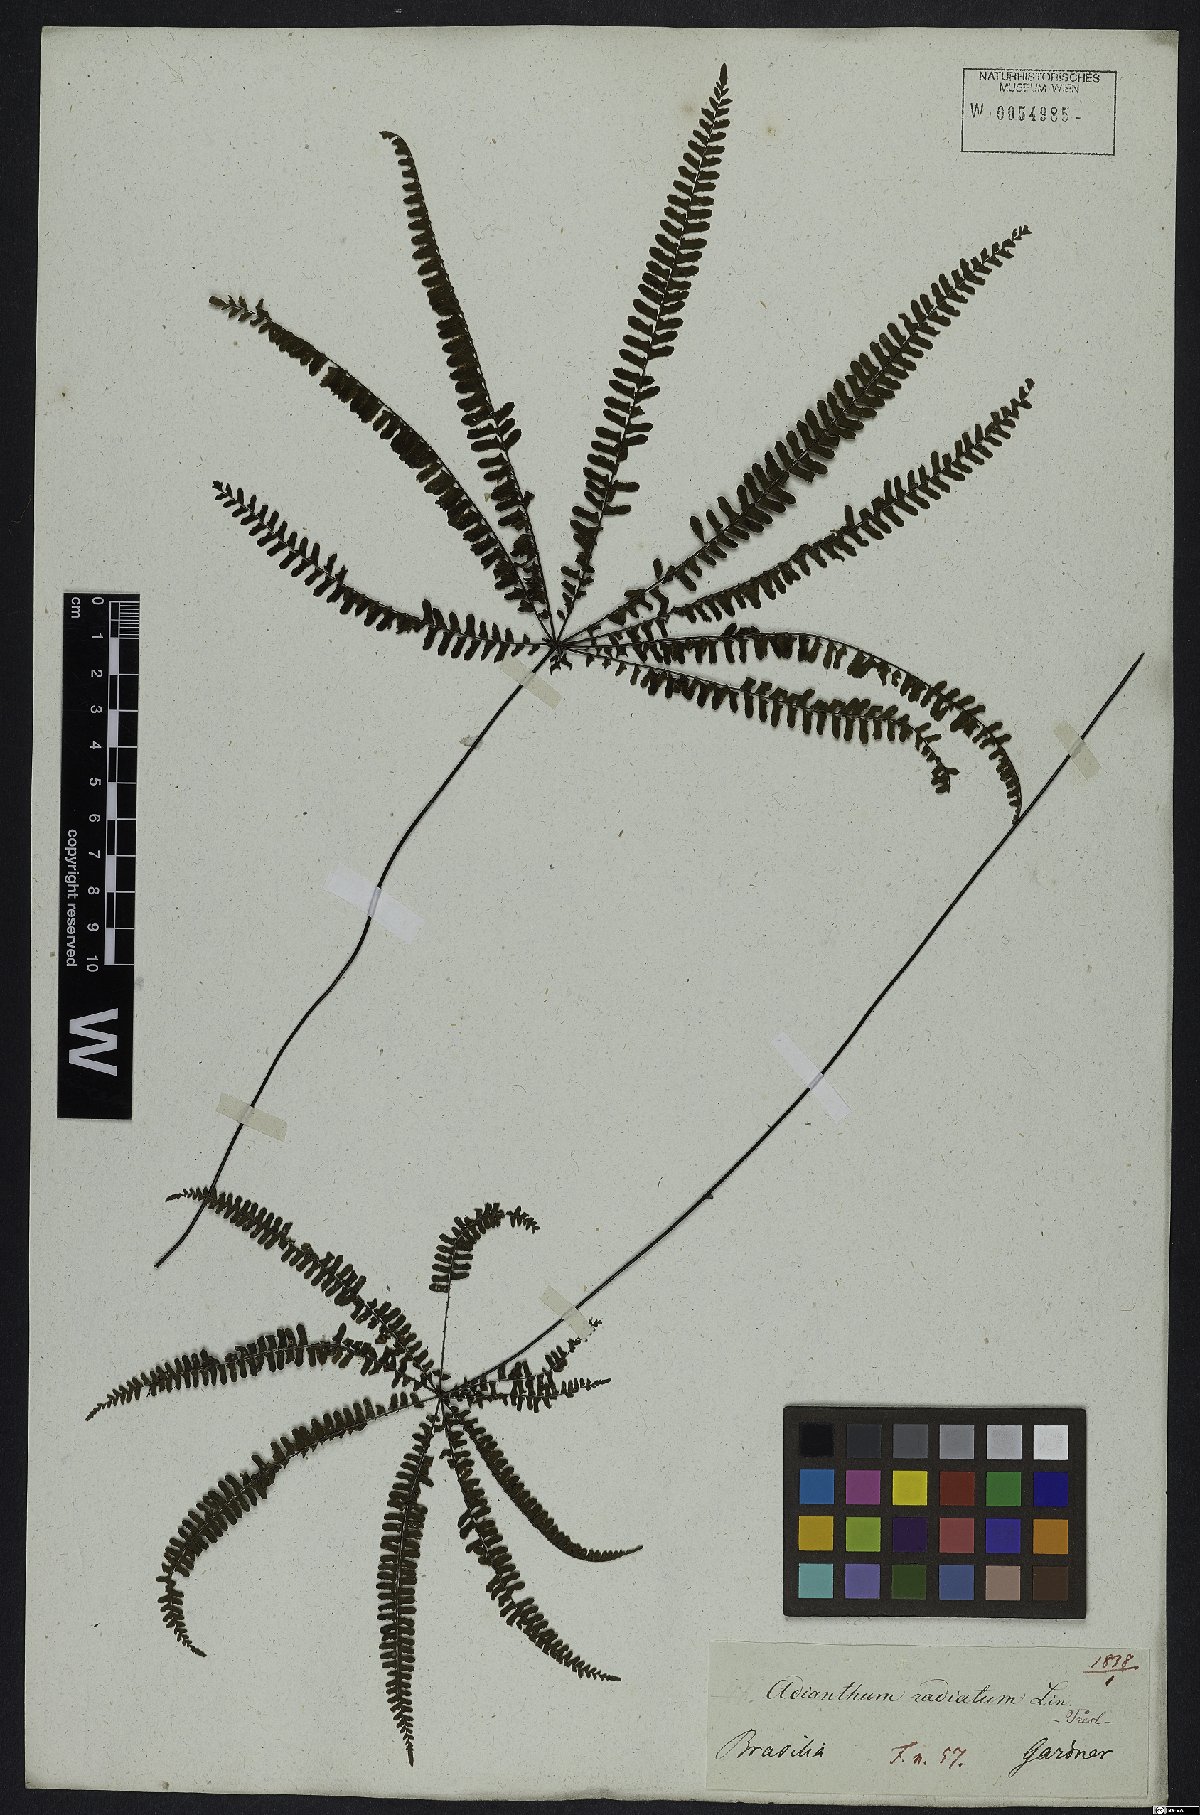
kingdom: Plantae
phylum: Tracheophyta
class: Polypodiopsida
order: Polypodiales
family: Pteridaceae
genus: Adiantopsis
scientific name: Adiantopsis radiata
